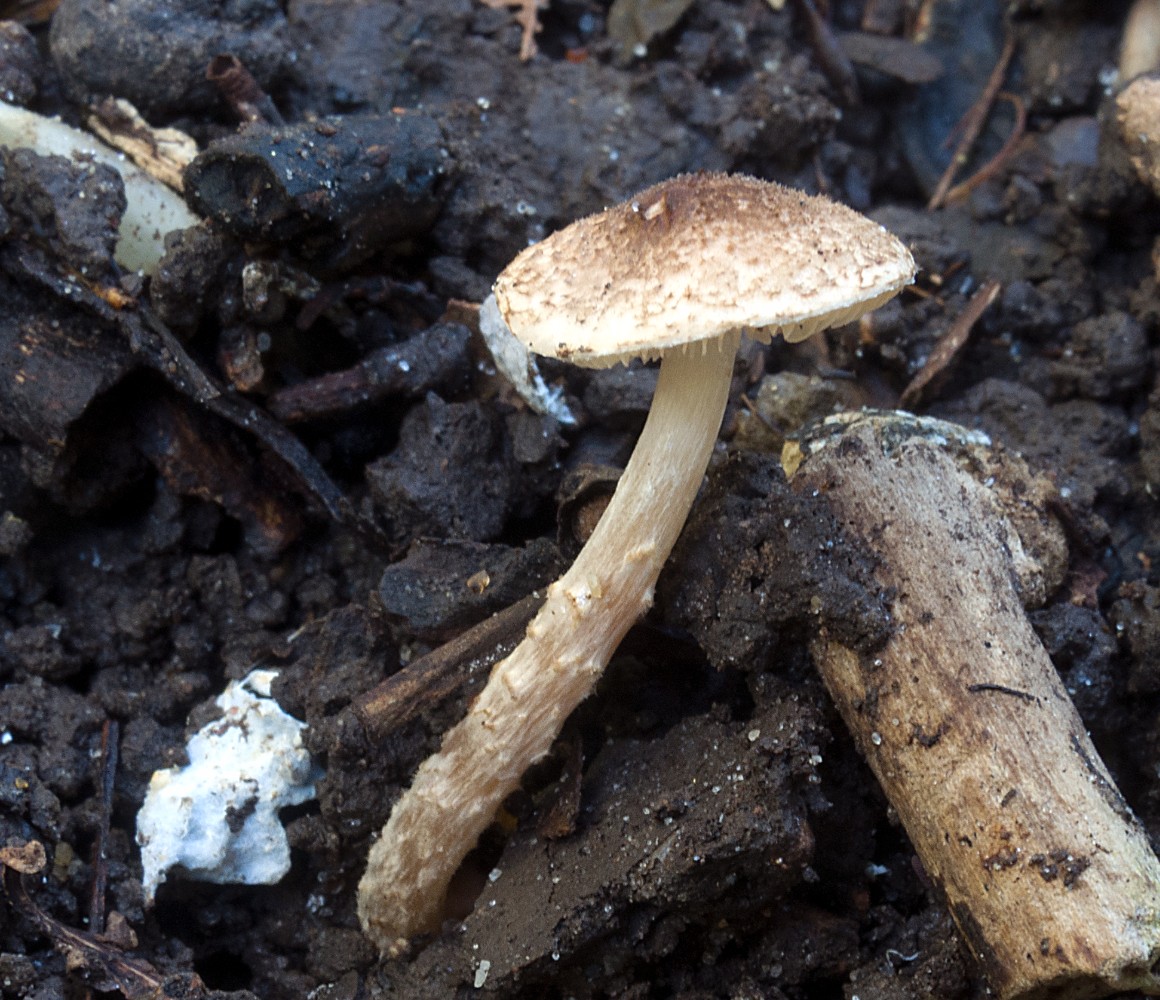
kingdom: Fungi
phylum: Basidiomycota
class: Agaricomycetes
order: Agaricales
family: Agaricaceae
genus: Lepiota
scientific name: Lepiota tomentella
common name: filtet parasolhat
